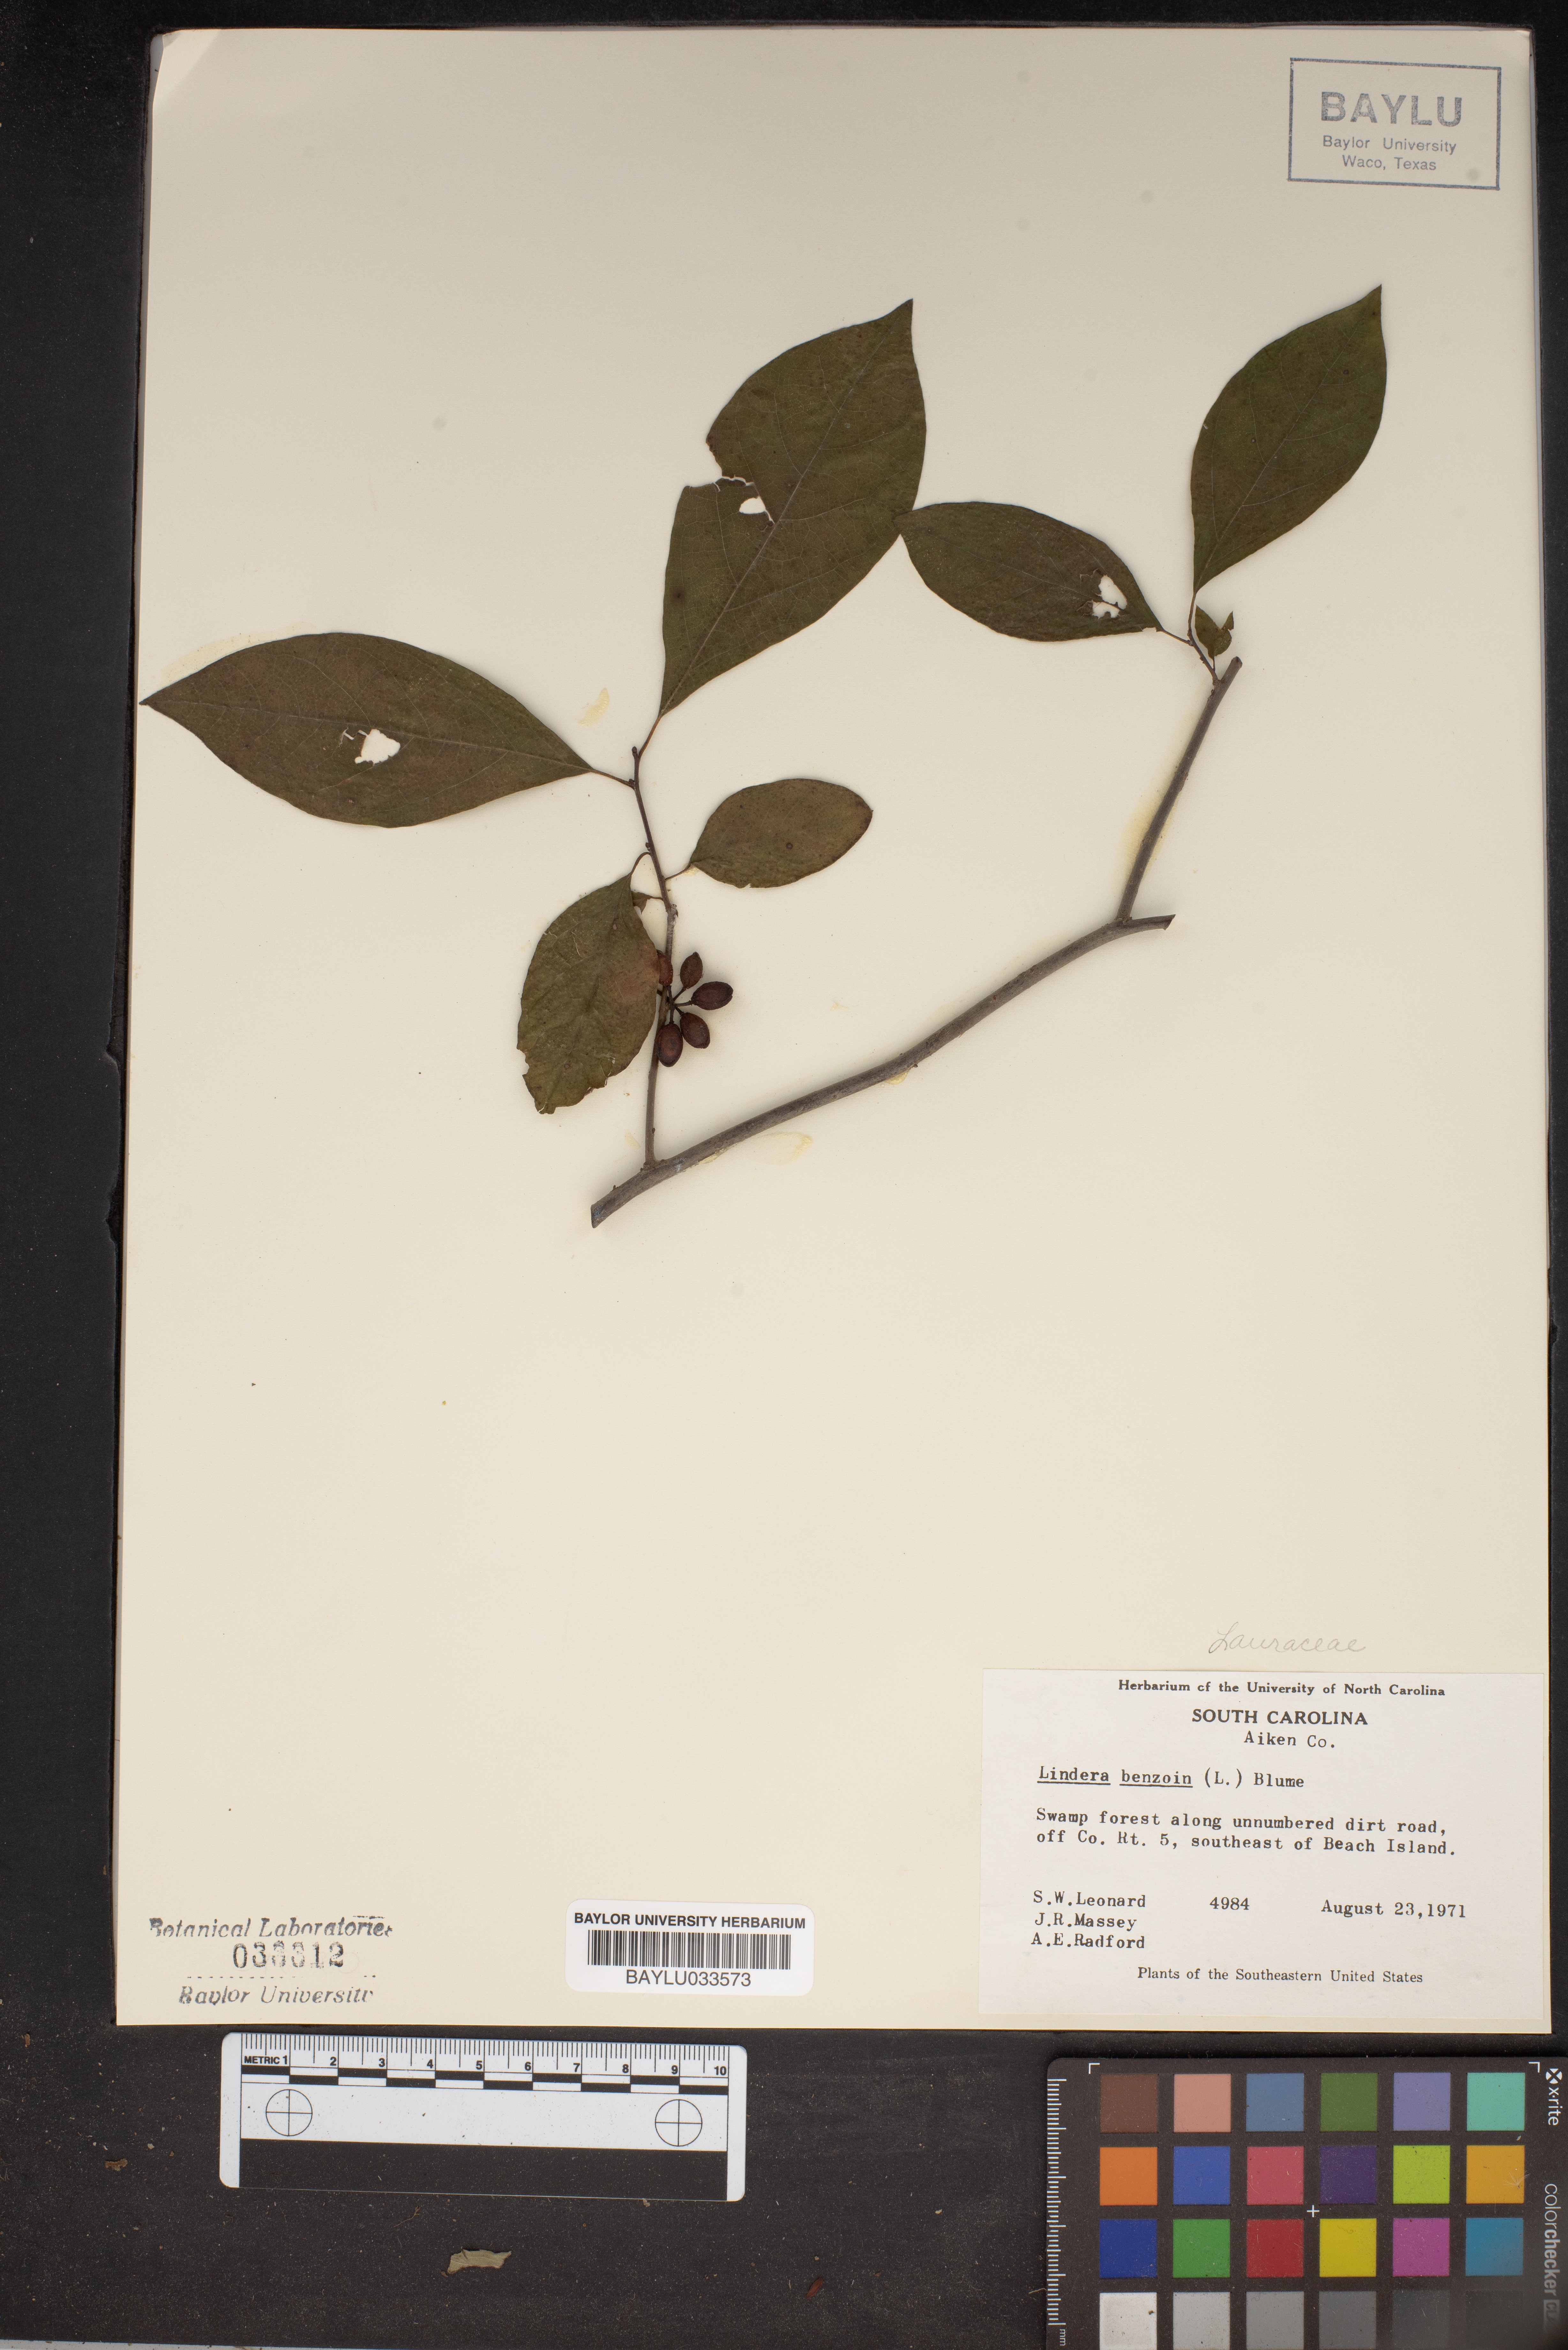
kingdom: Plantae
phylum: Tracheophyta
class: Magnoliopsida
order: Laurales
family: Lauraceae
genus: Lindera
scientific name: Lindera benzoin
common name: Spicebush
